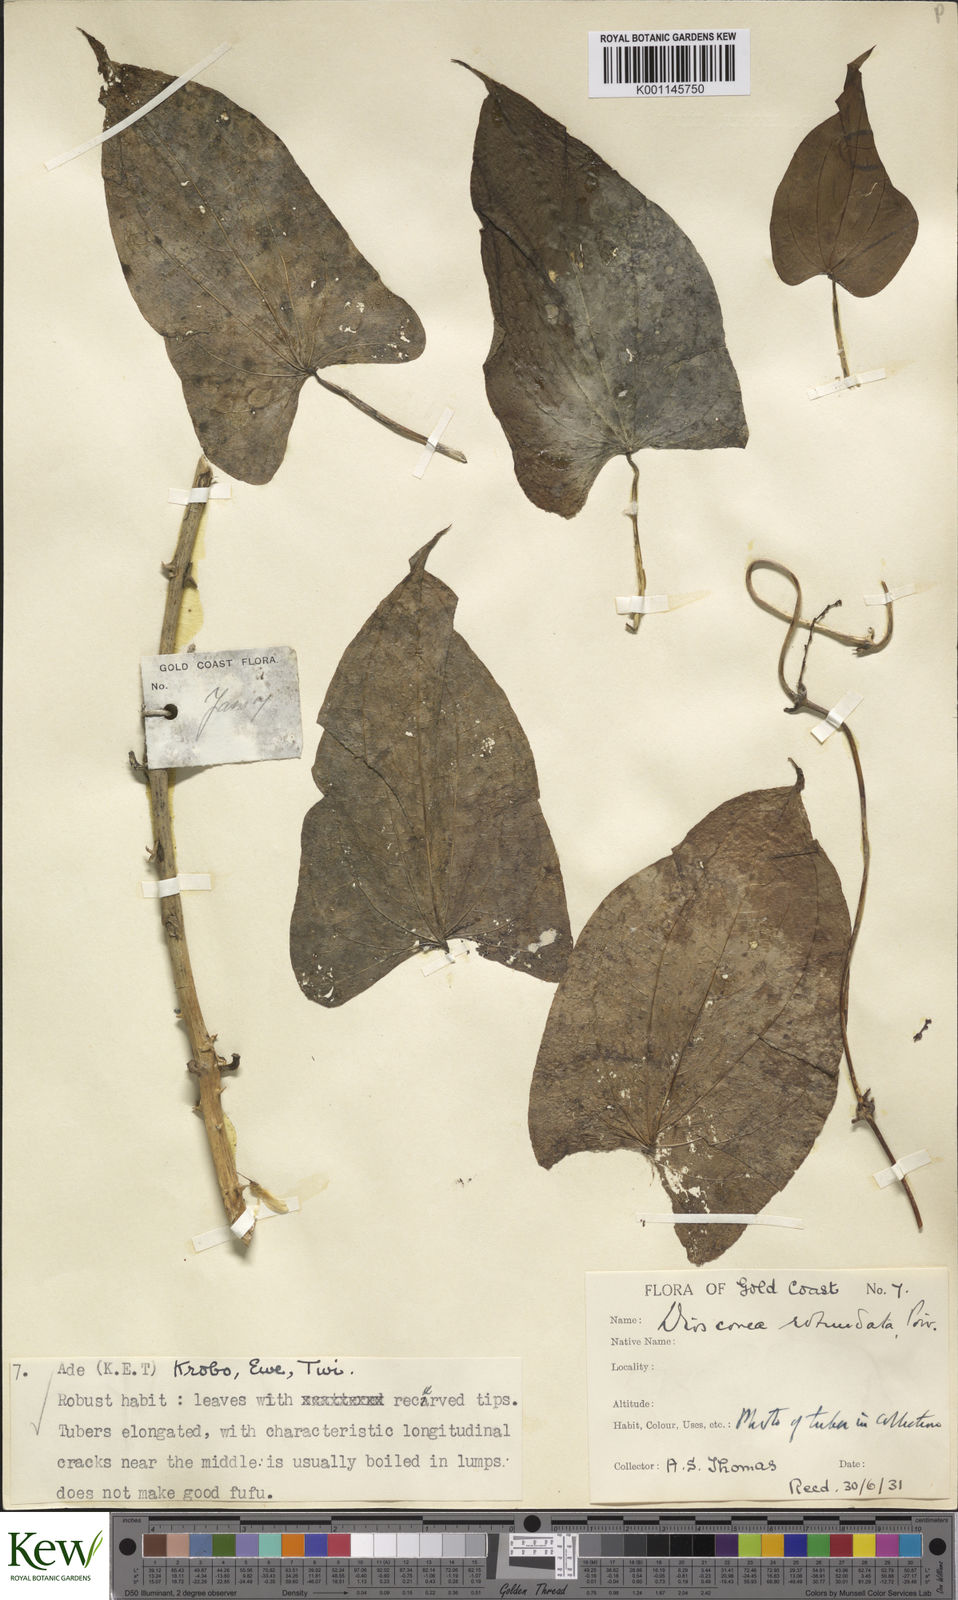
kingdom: Plantae
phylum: Tracheophyta
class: Liliopsida
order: Dioscoreales
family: Dioscoreaceae
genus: Dioscorea
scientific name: Dioscorea cayenensis
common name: Attoto yam
